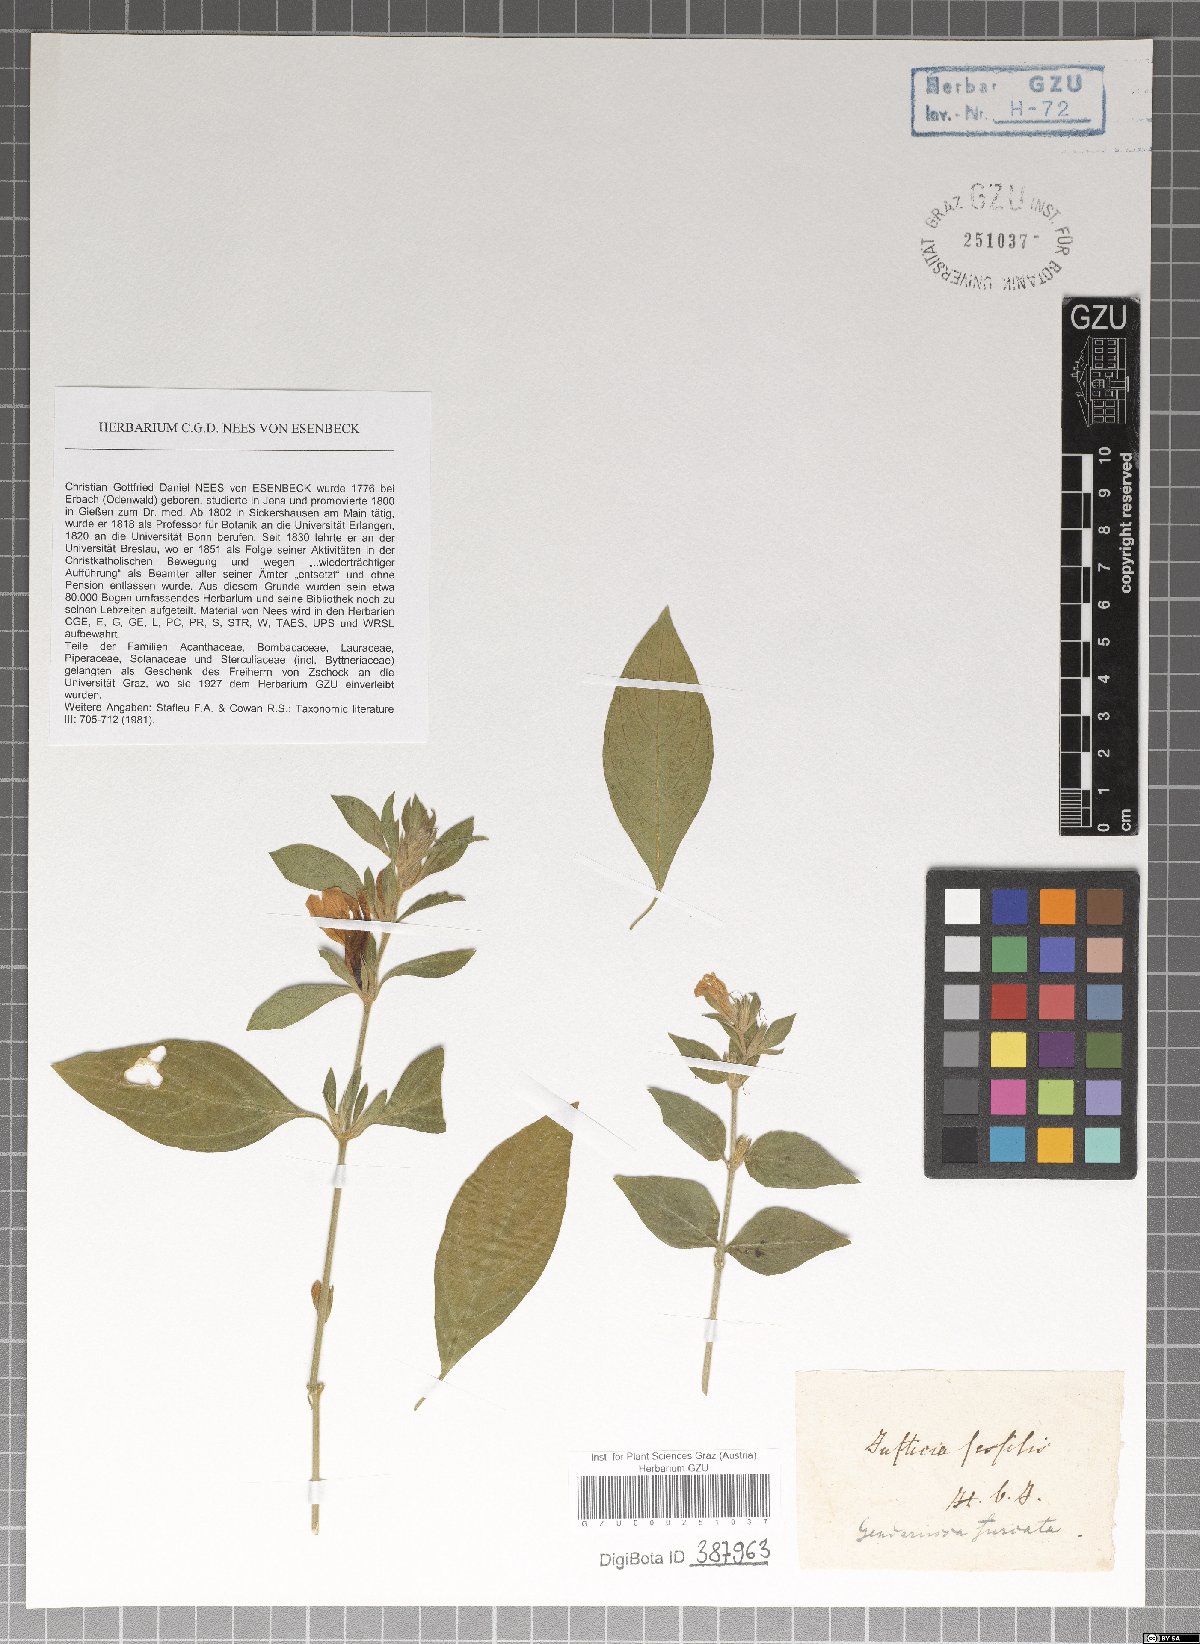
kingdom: Plantae
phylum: Tracheophyta
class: Magnoliopsida
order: Lamiales
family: Acanthaceae
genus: Justicia
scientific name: Justicia furcata
